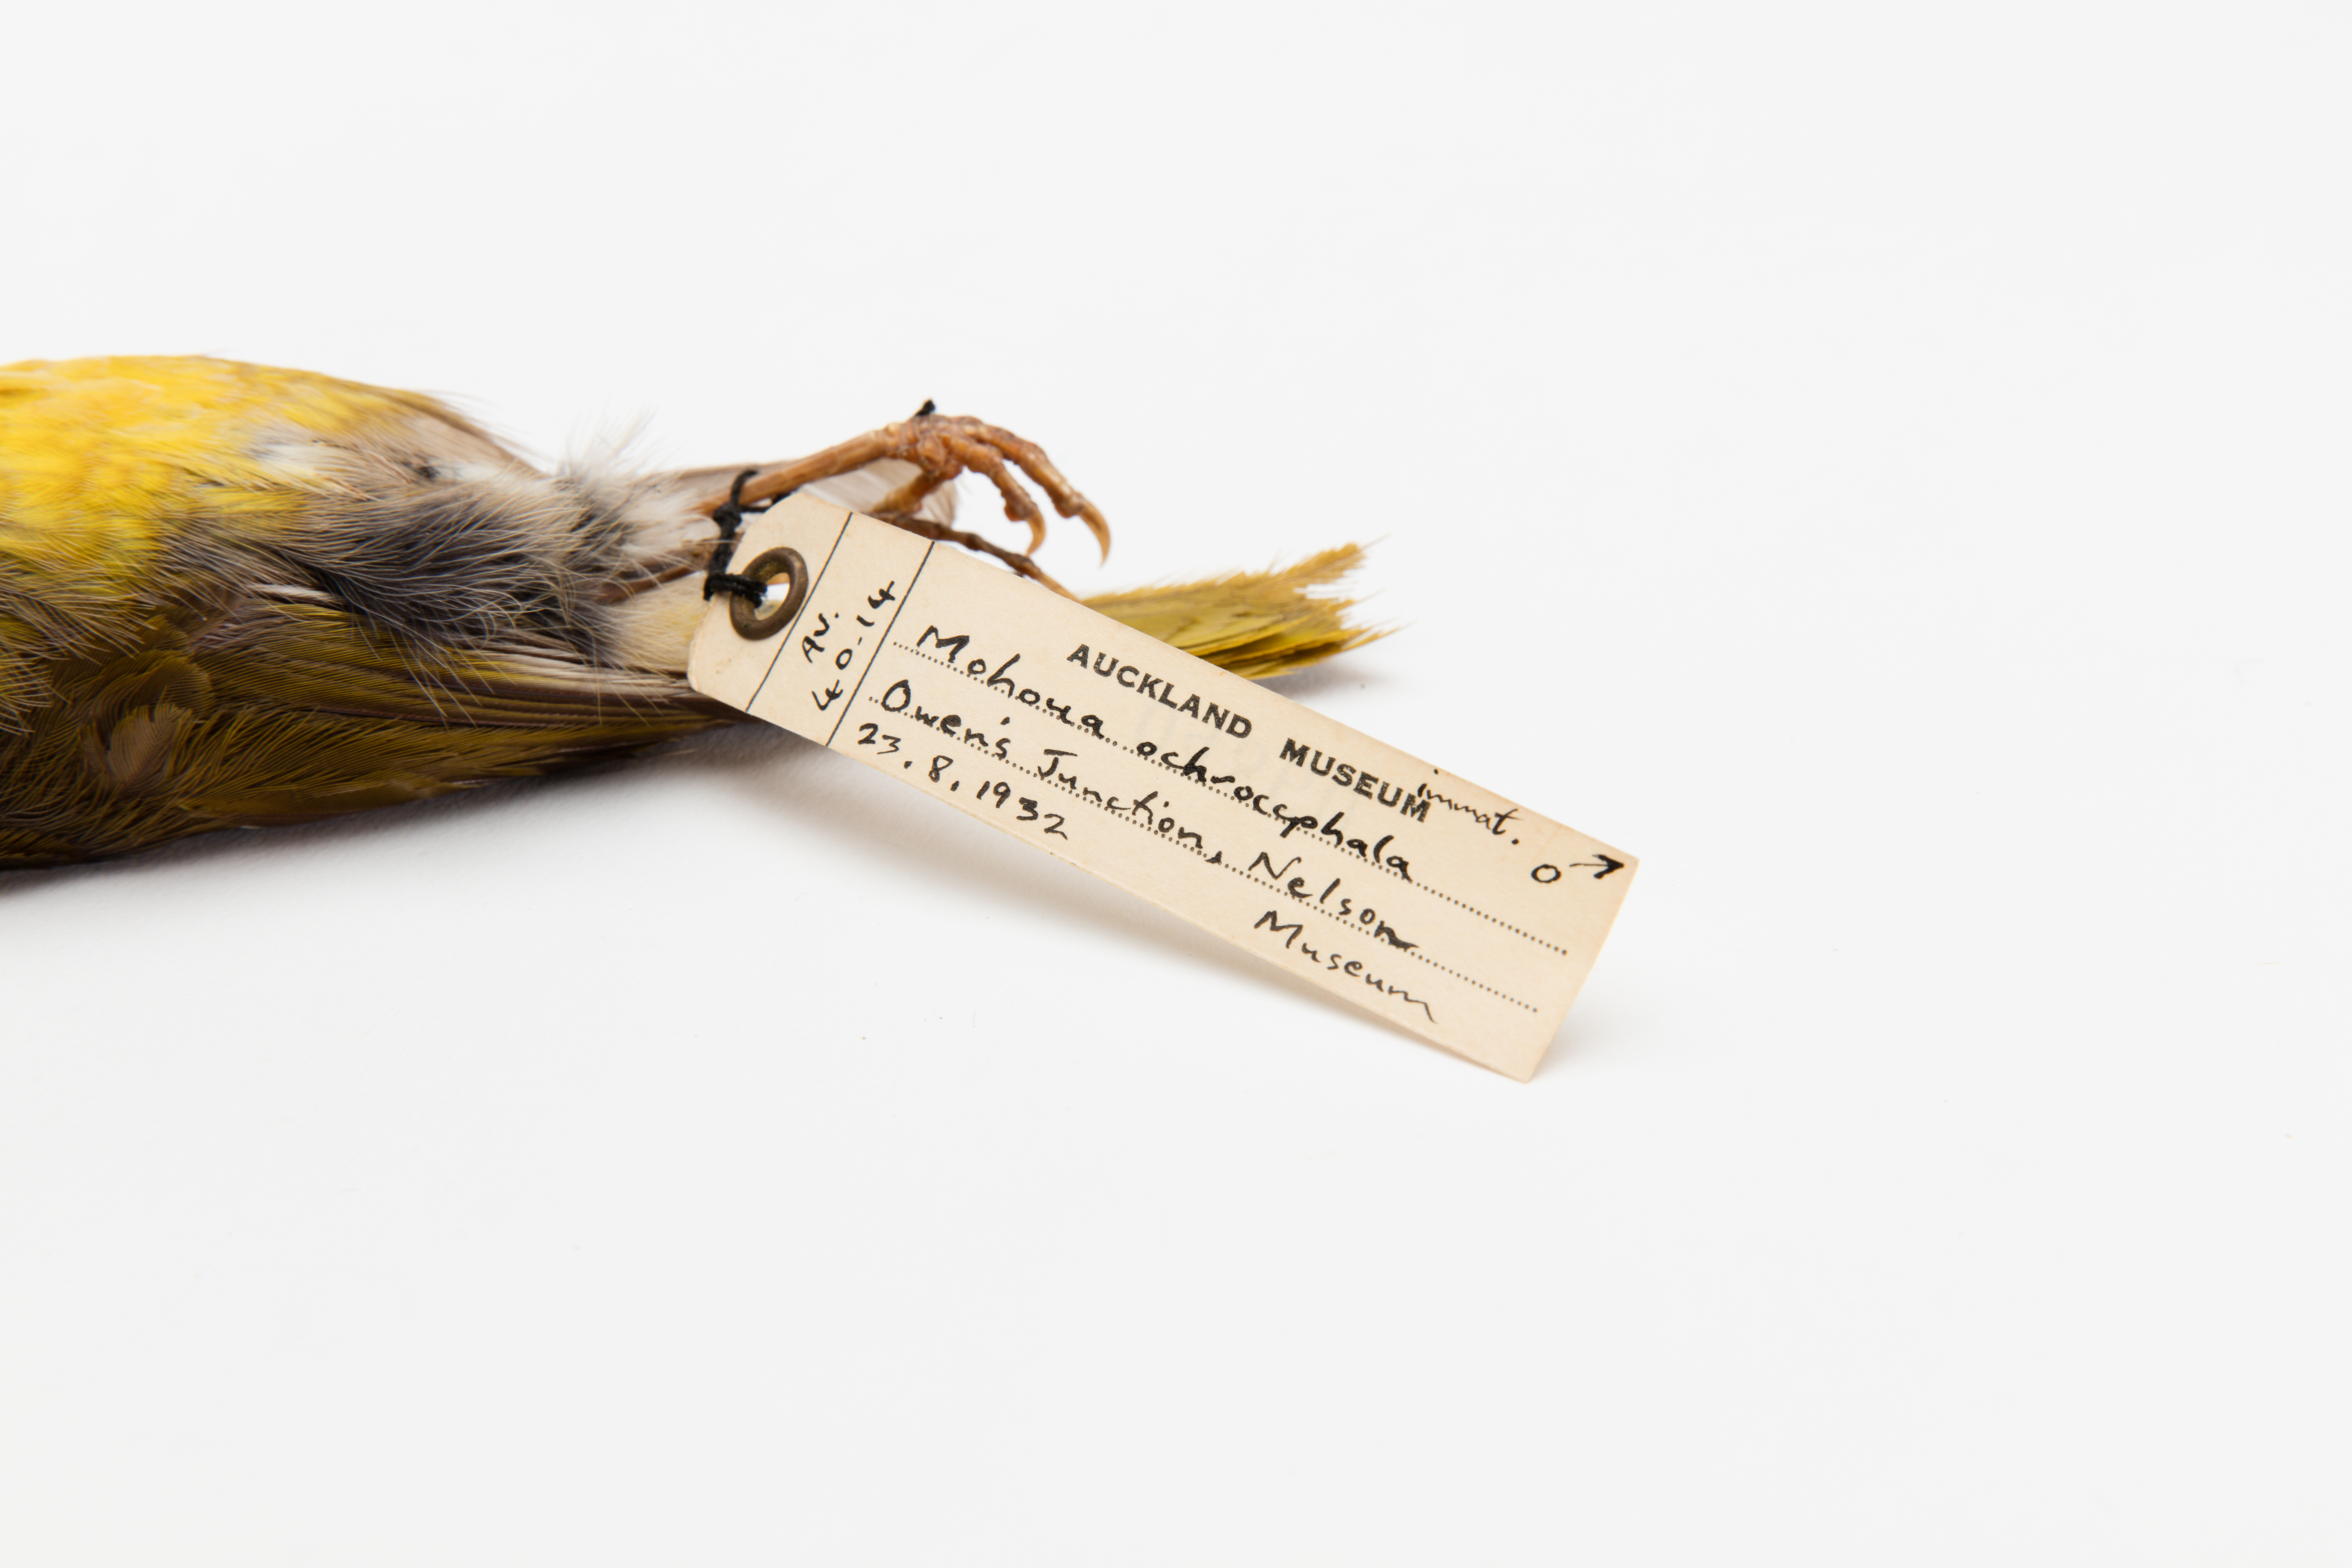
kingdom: Animalia
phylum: Chordata
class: Aves
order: Passeriformes
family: Acanthizidae
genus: Mohoua
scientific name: Mohoua ochrocephala
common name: Yellowhead
